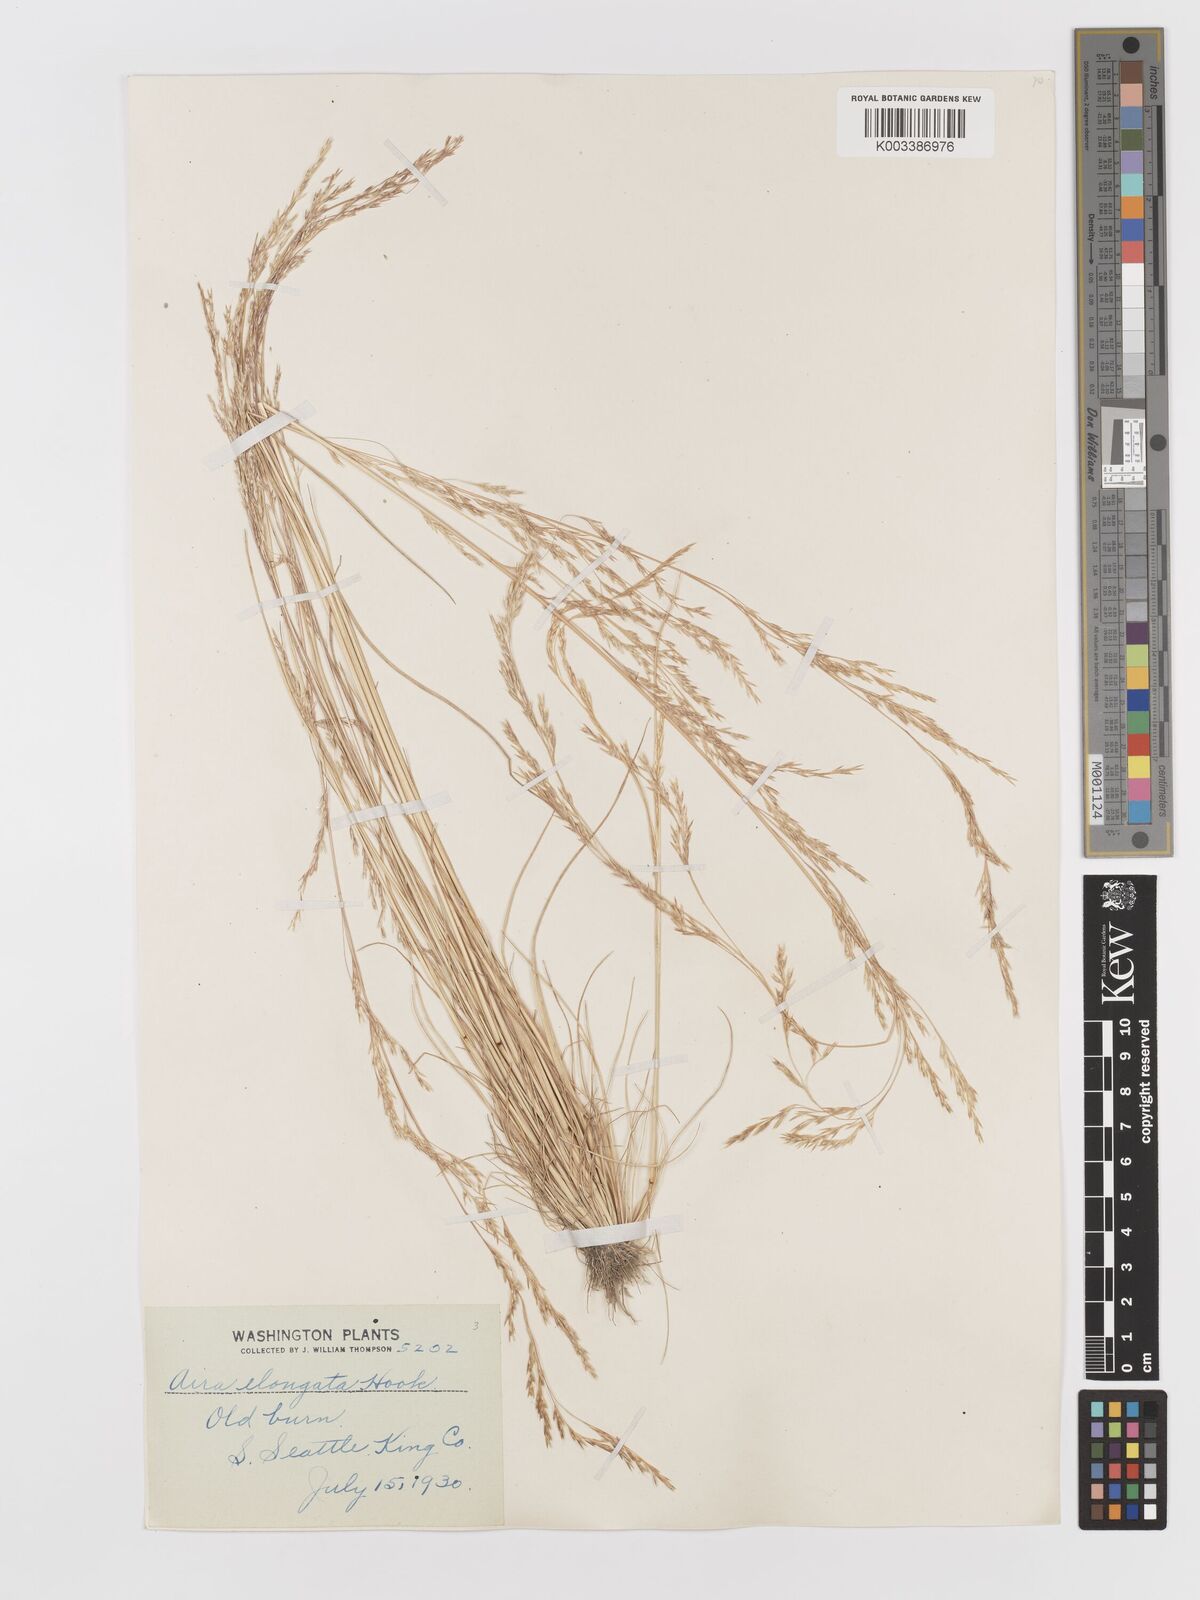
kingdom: Plantae
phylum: Tracheophyta
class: Liliopsida
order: Poales
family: Poaceae
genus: Deschampsia
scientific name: Deschampsia elongata
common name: Slender hairgrass
